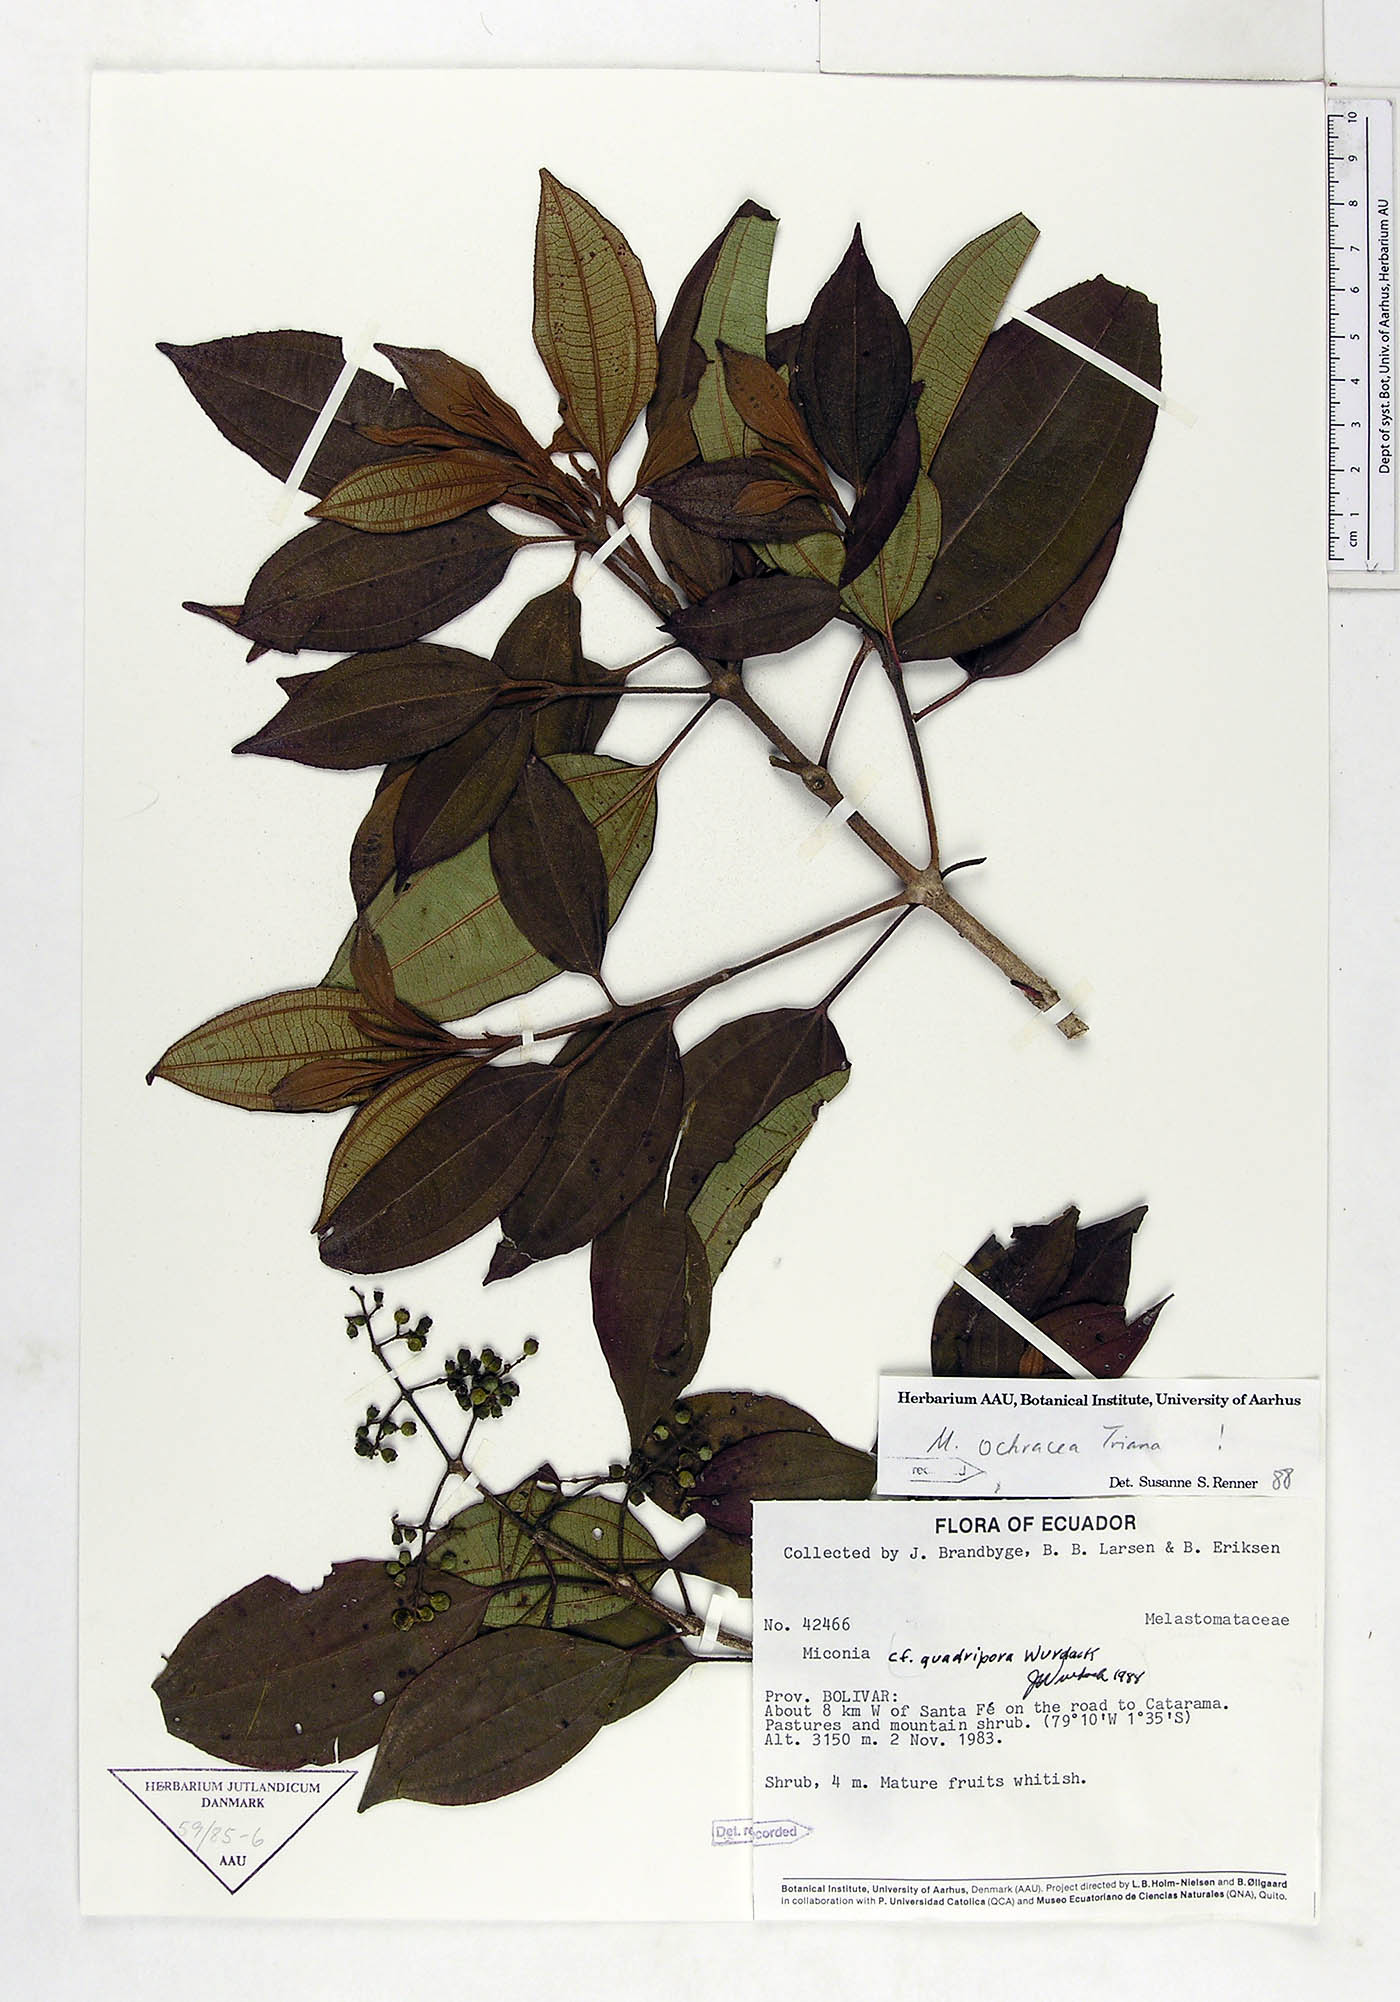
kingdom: Plantae
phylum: Tracheophyta
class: Magnoliopsida
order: Myrtales
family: Melastomataceae
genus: Miconia
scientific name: Miconia ochracea
